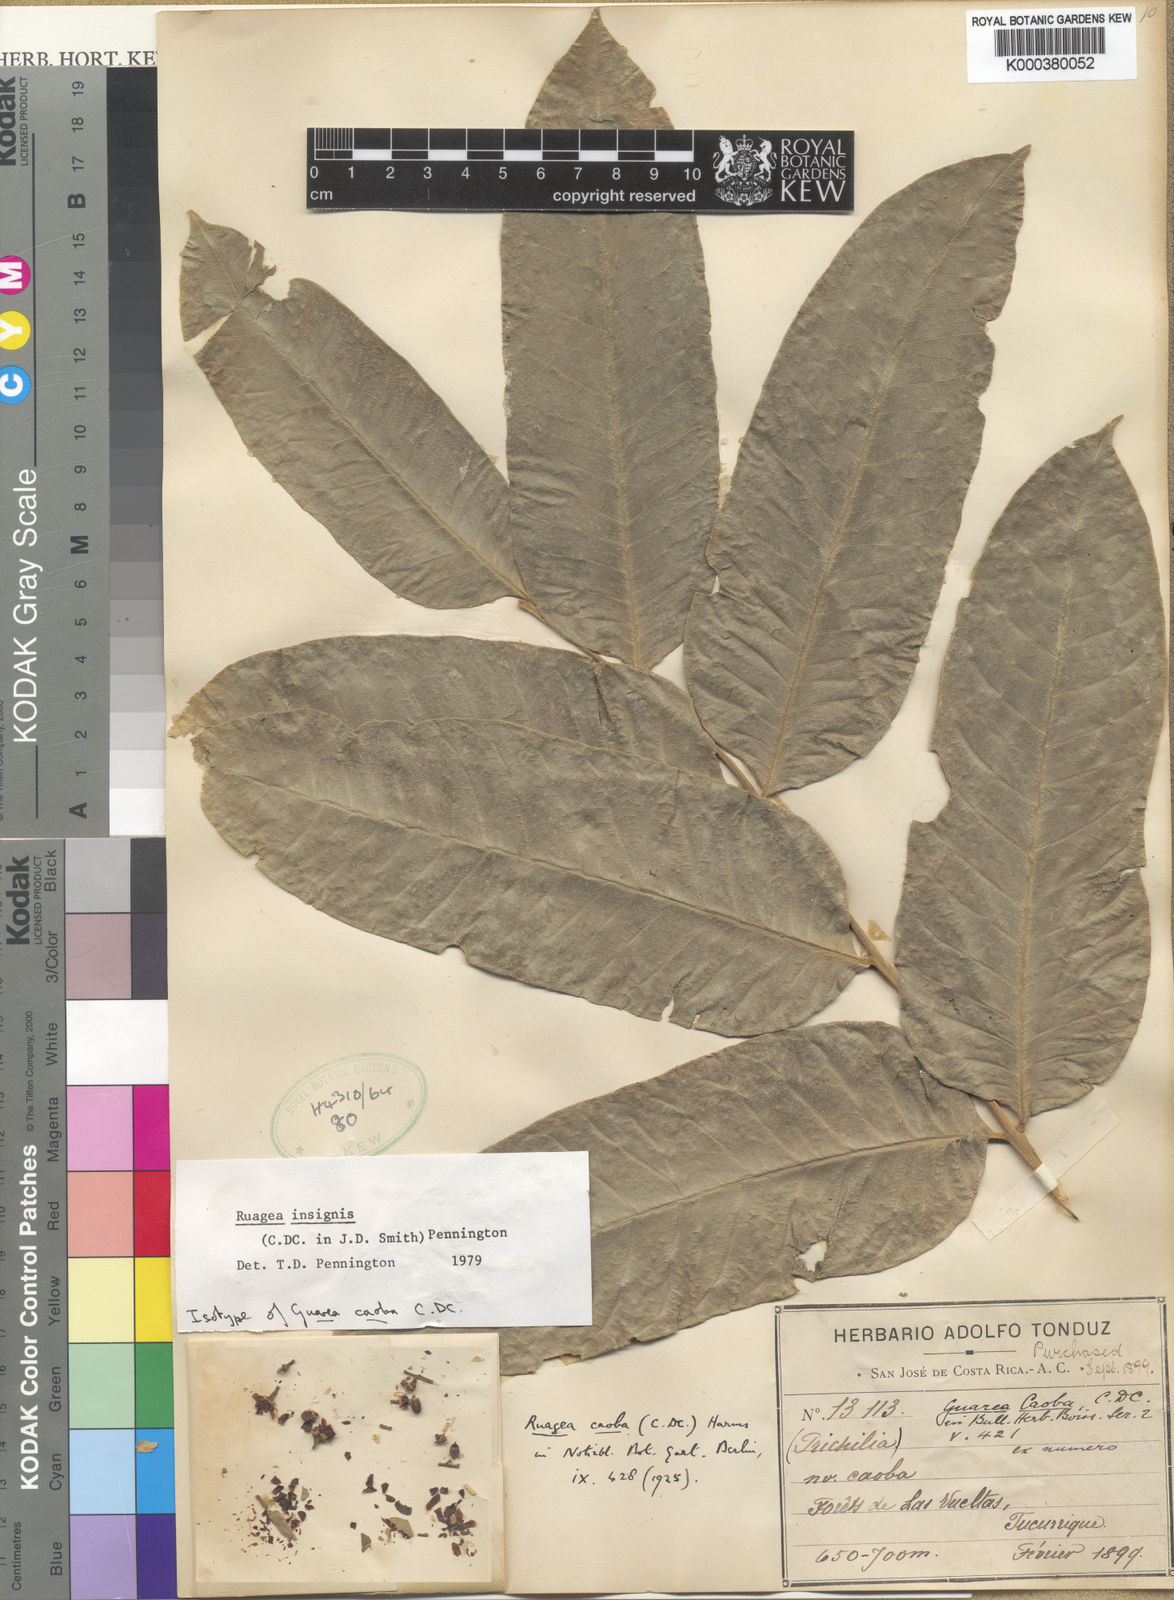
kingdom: Plantae
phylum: Tracheophyta
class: Magnoliopsida
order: Sapindales
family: Meliaceae
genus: Ruagea
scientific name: Ruagea insignis
